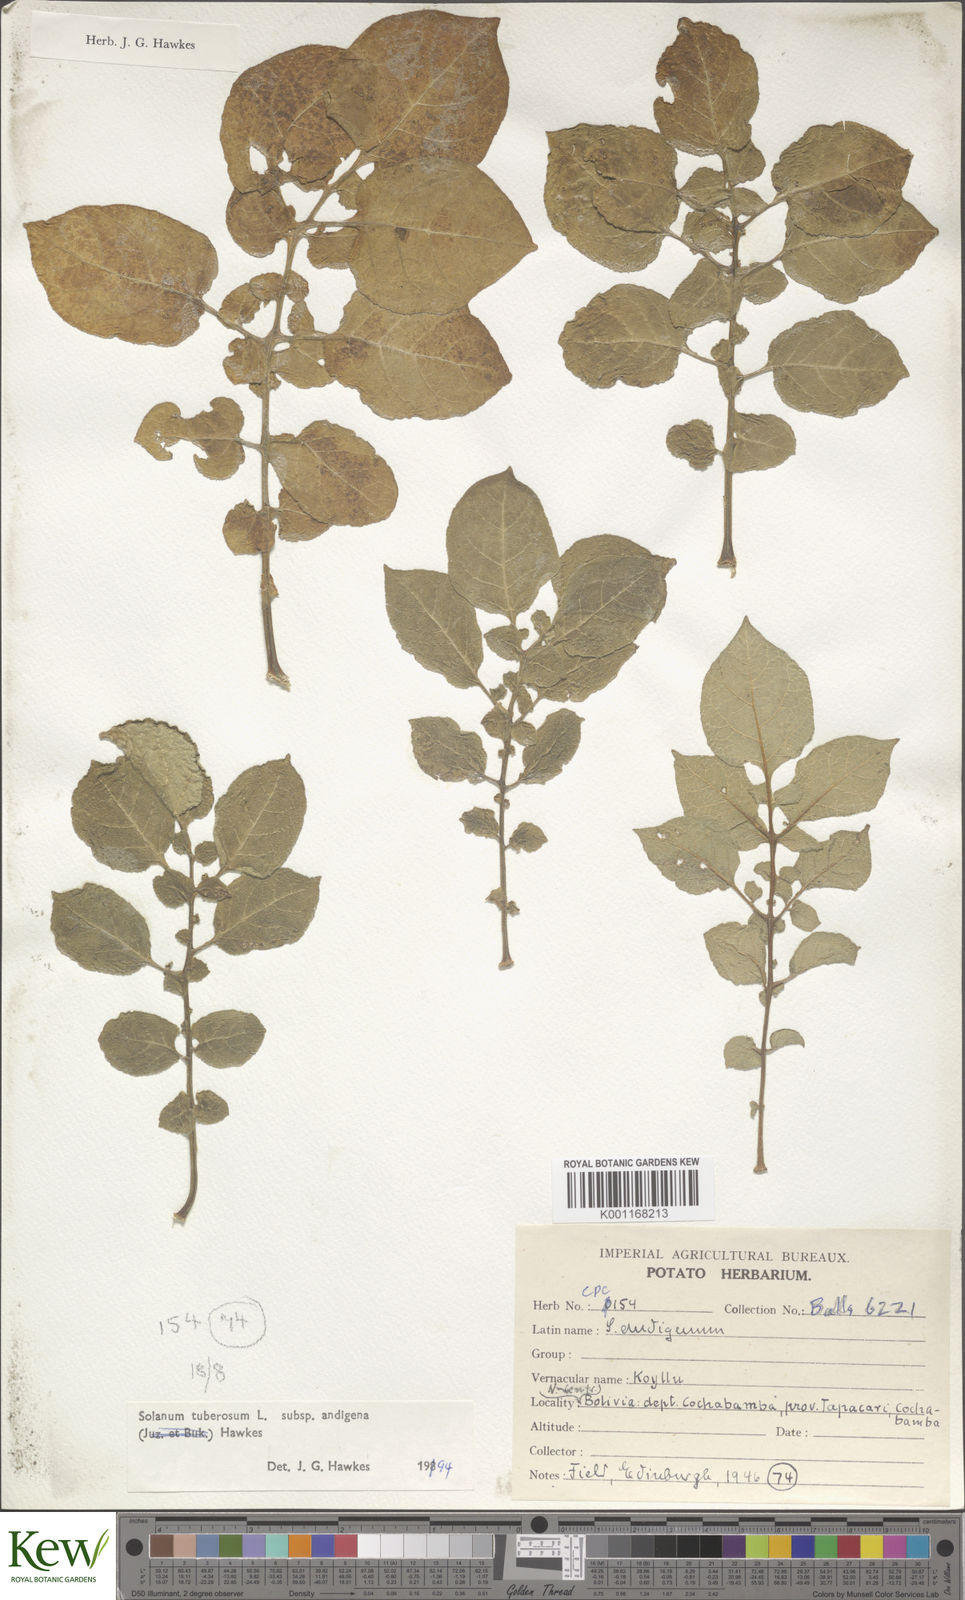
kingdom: Plantae
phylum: Tracheophyta
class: Magnoliopsida
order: Solanales
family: Solanaceae
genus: Solanum
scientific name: Solanum tuberosum
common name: Potato
